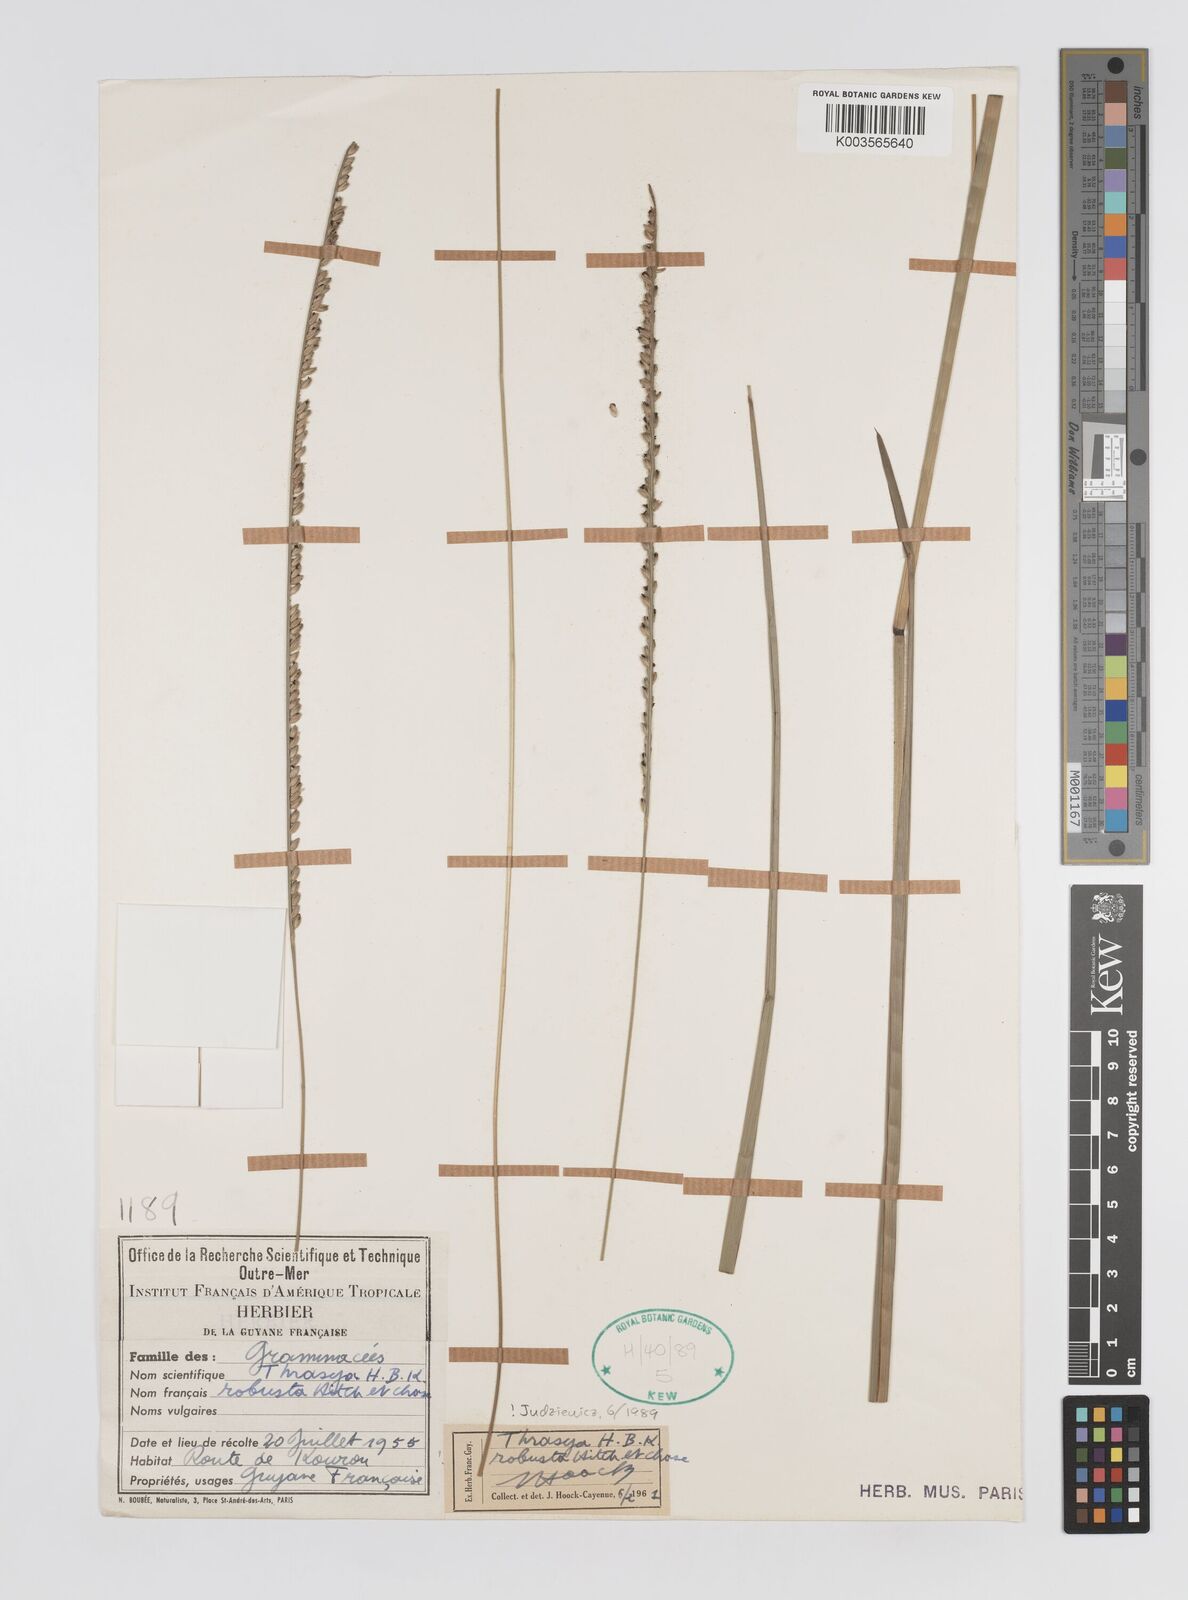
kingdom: Plantae
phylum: Tracheophyta
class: Liliopsida
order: Poales
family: Poaceae
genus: Paspalum
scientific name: Paspalum robustum
